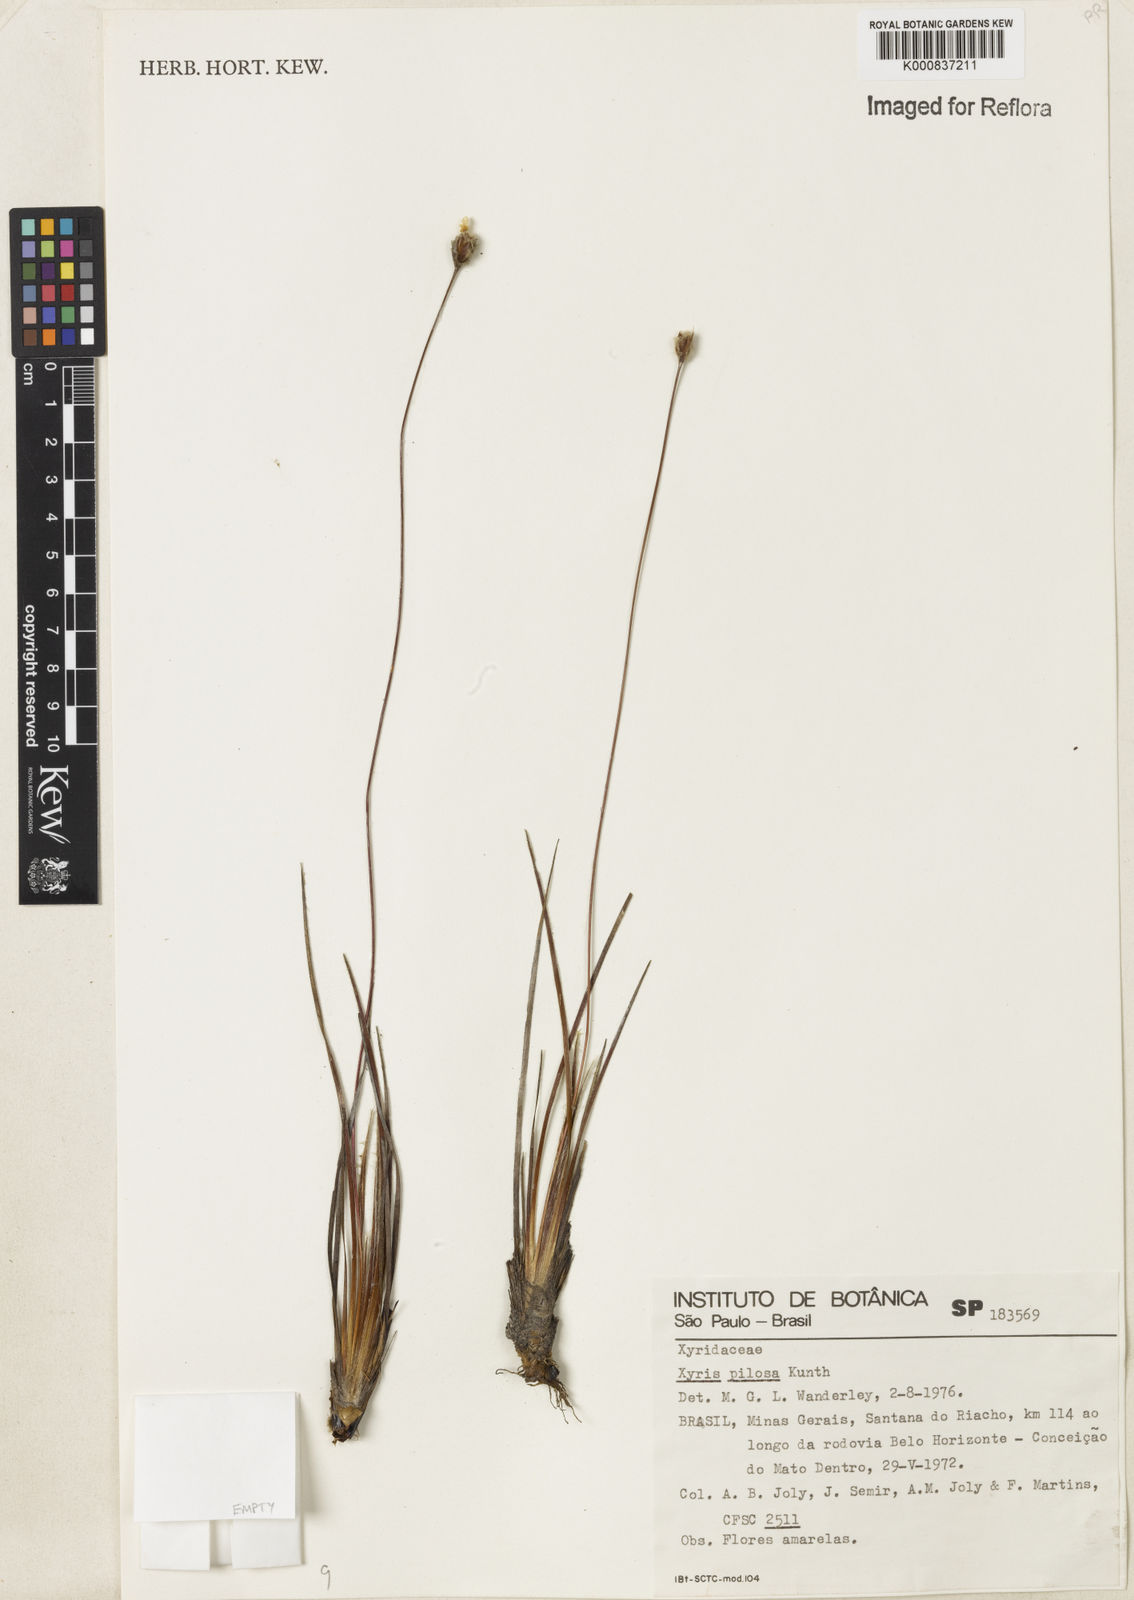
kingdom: Plantae
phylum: Tracheophyta
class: Liliopsida
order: Poales
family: Xyridaceae
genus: Xyris
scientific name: Xyris pilosa
